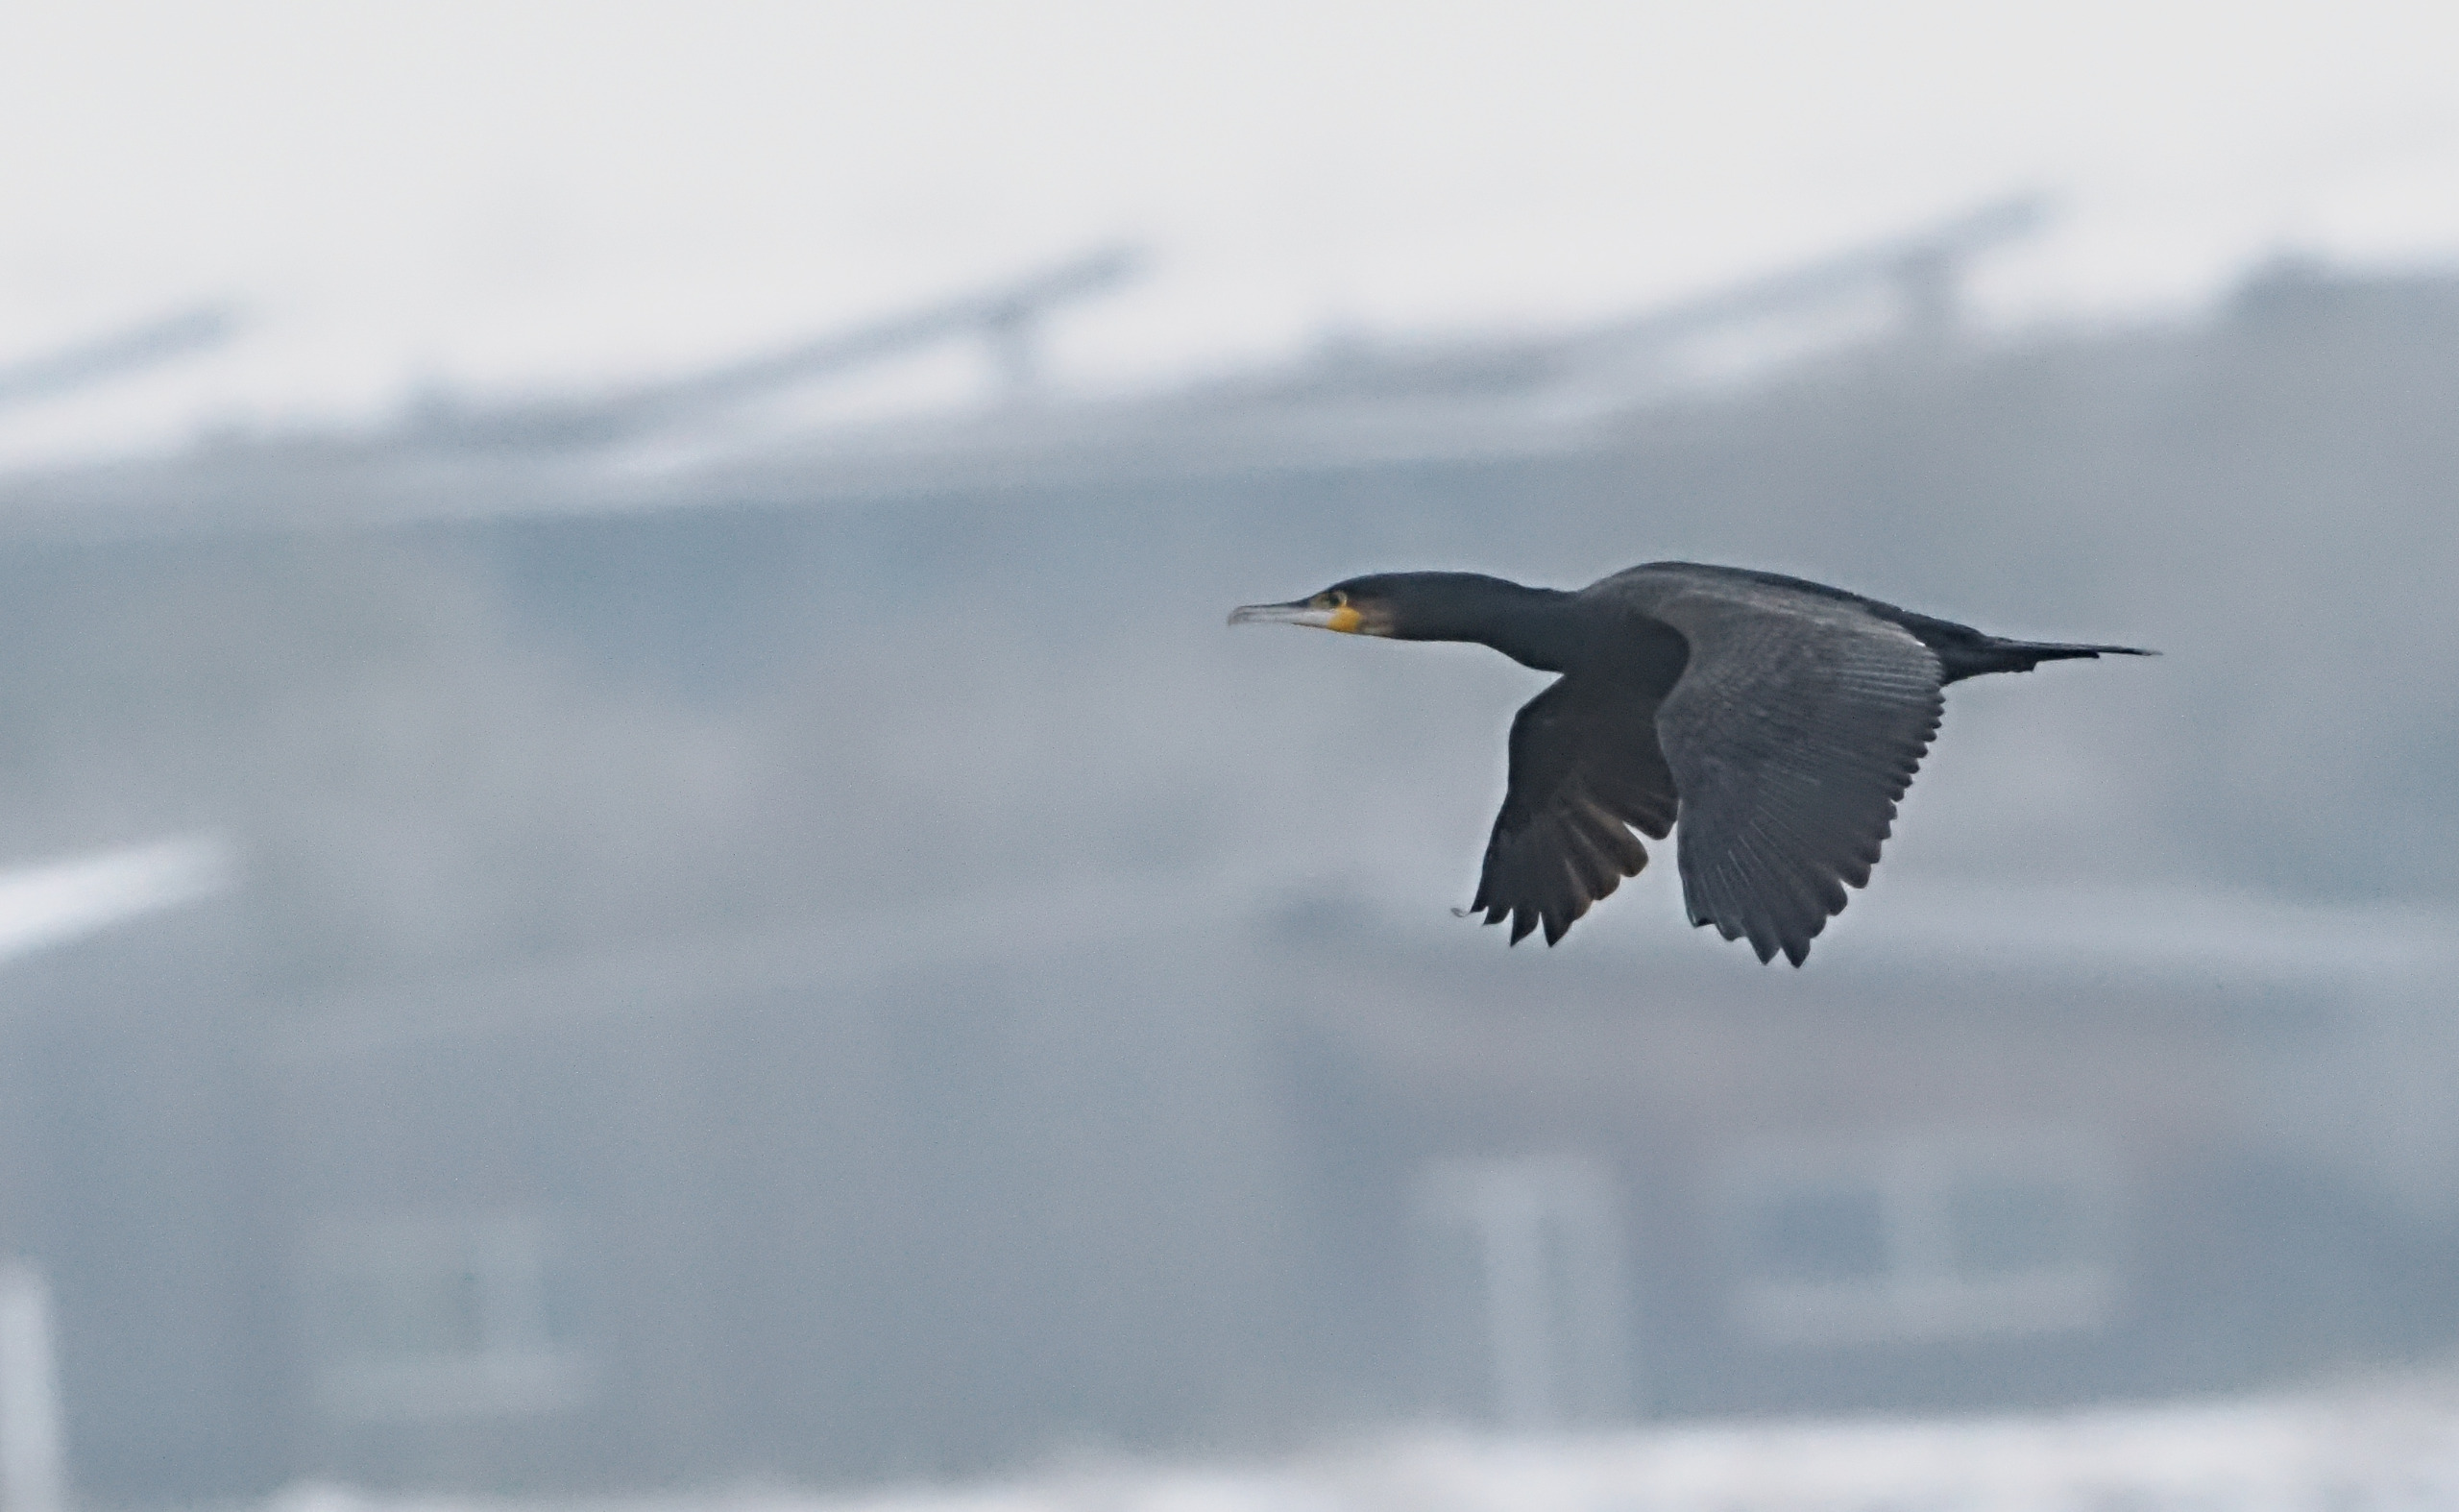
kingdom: Animalia
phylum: Chordata
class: Aves
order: Suliformes
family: Phalacrocoracidae
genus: Phalacrocorax
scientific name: Phalacrocorax carbo
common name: Skarv
